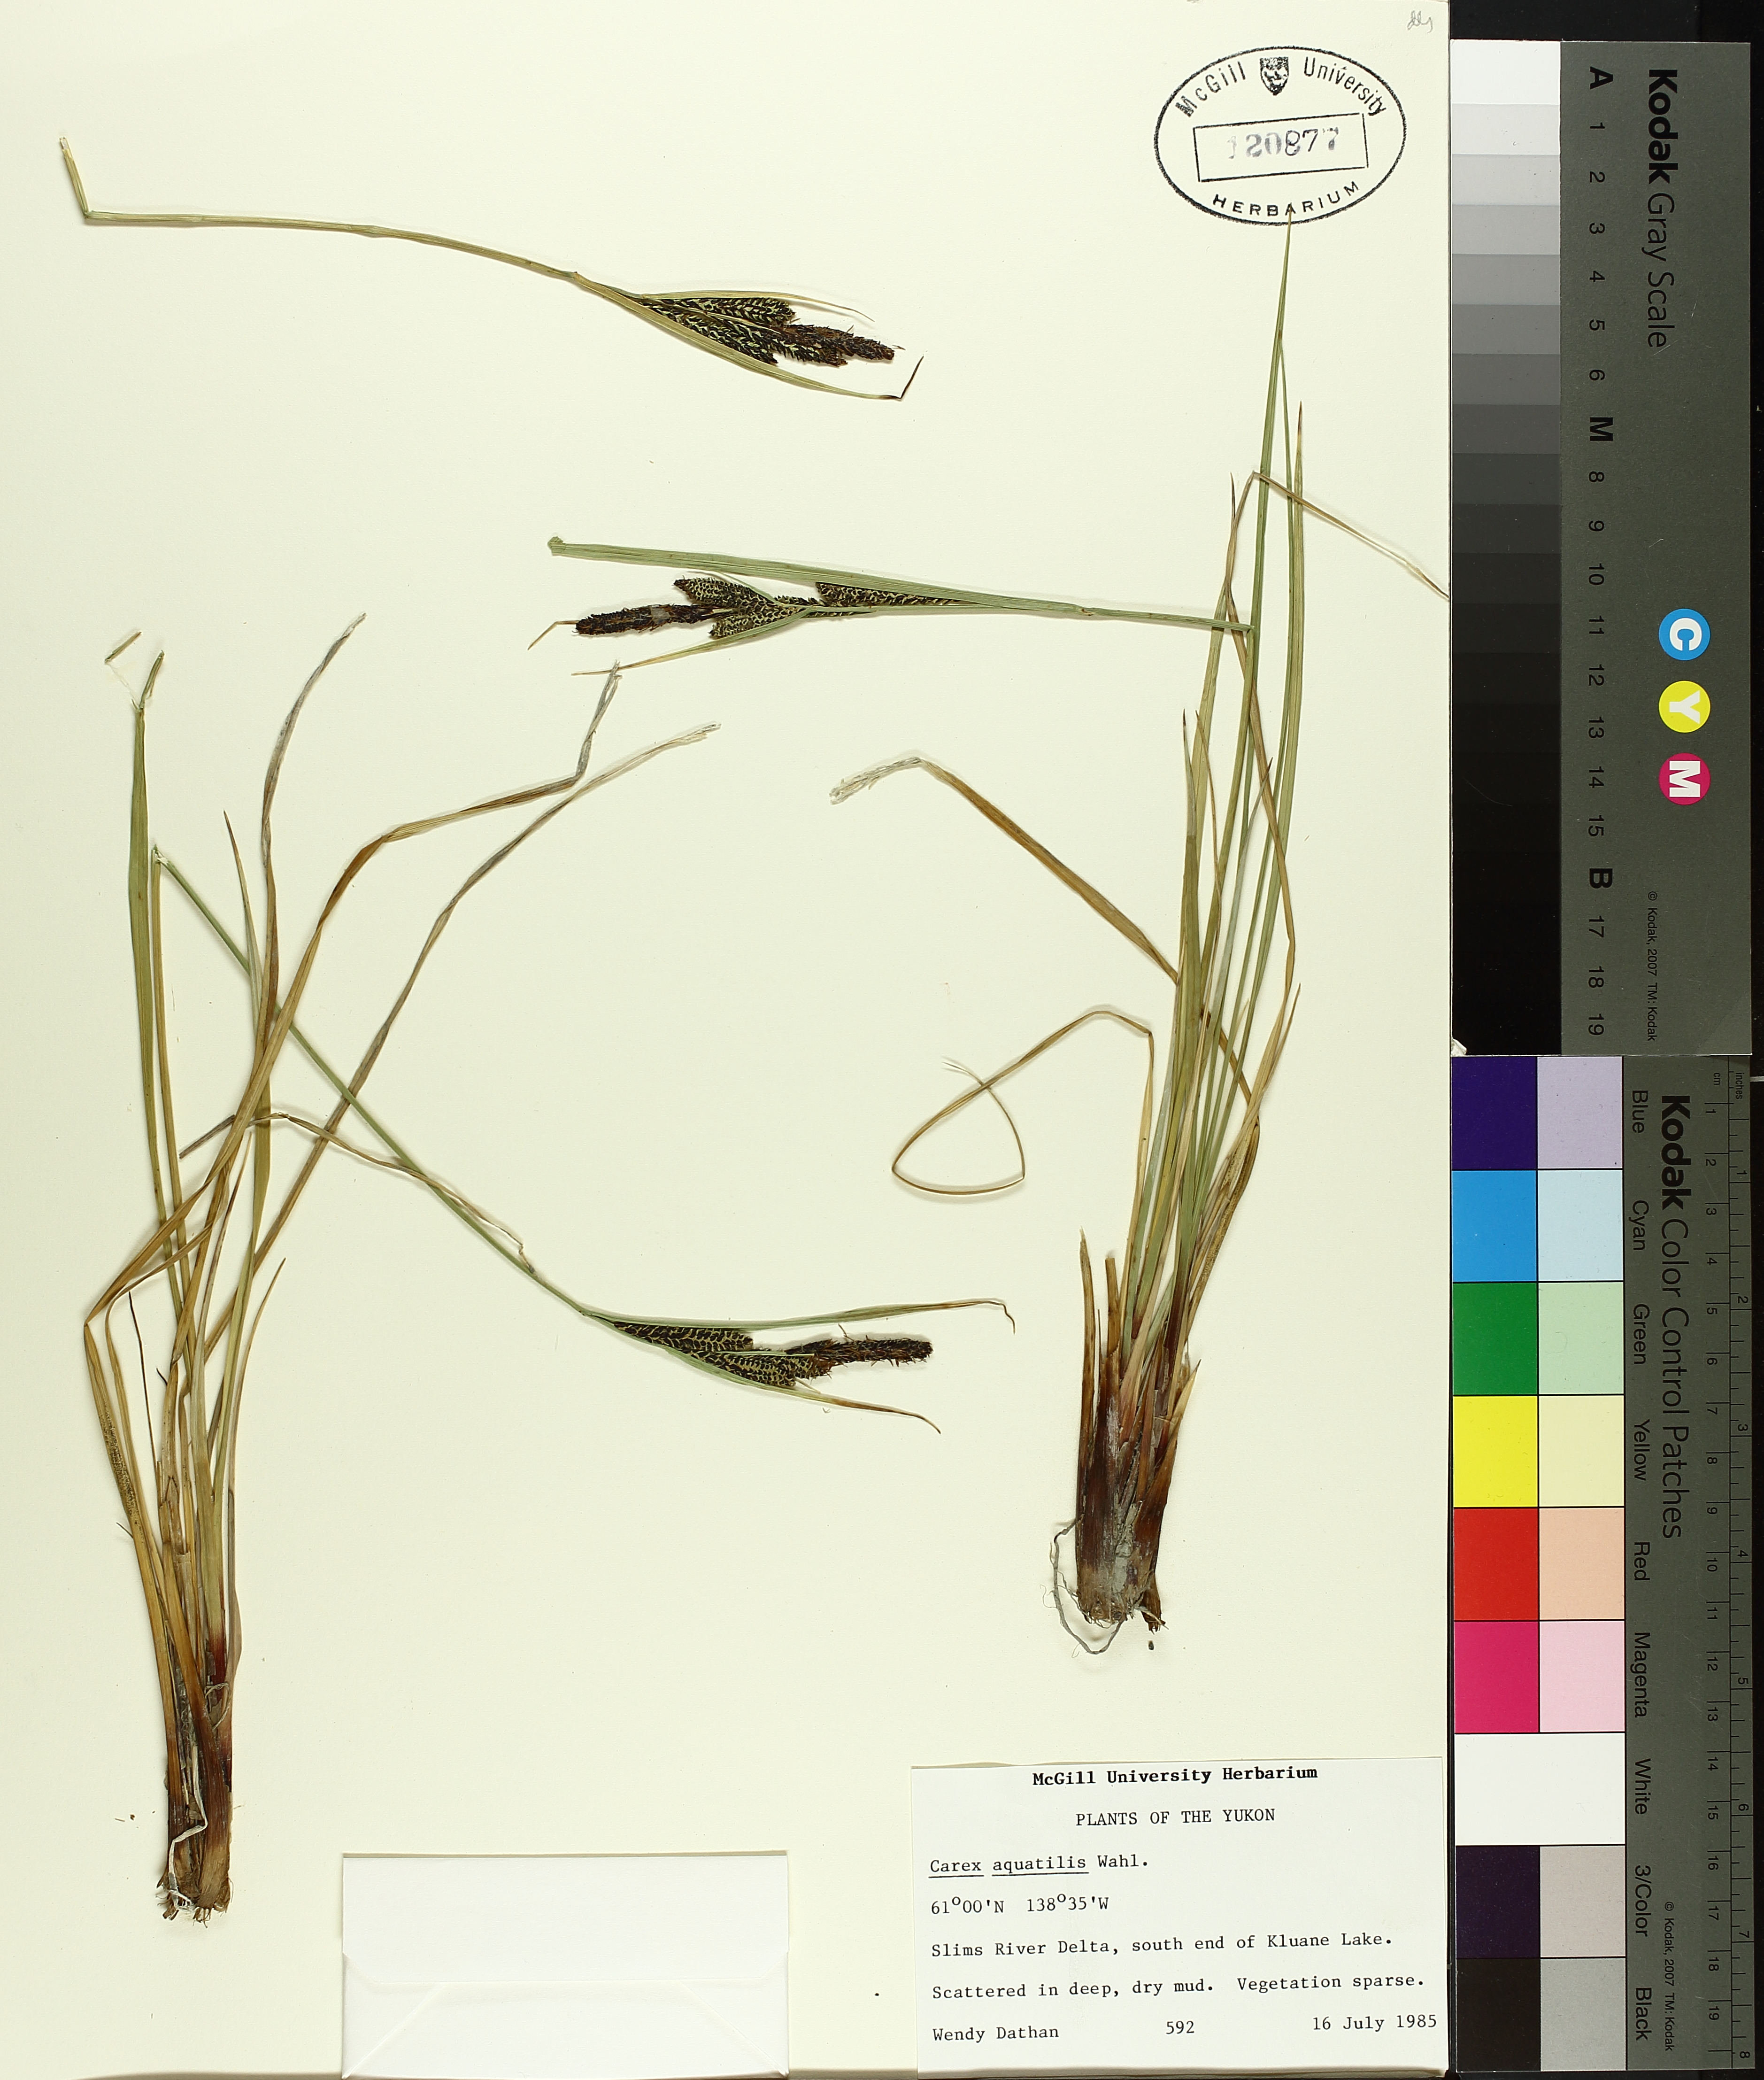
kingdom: Plantae
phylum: Tracheophyta
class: Liliopsida
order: Poales
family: Cyperaceae
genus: Carex
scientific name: Carex aquatilis
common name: Water sedge
